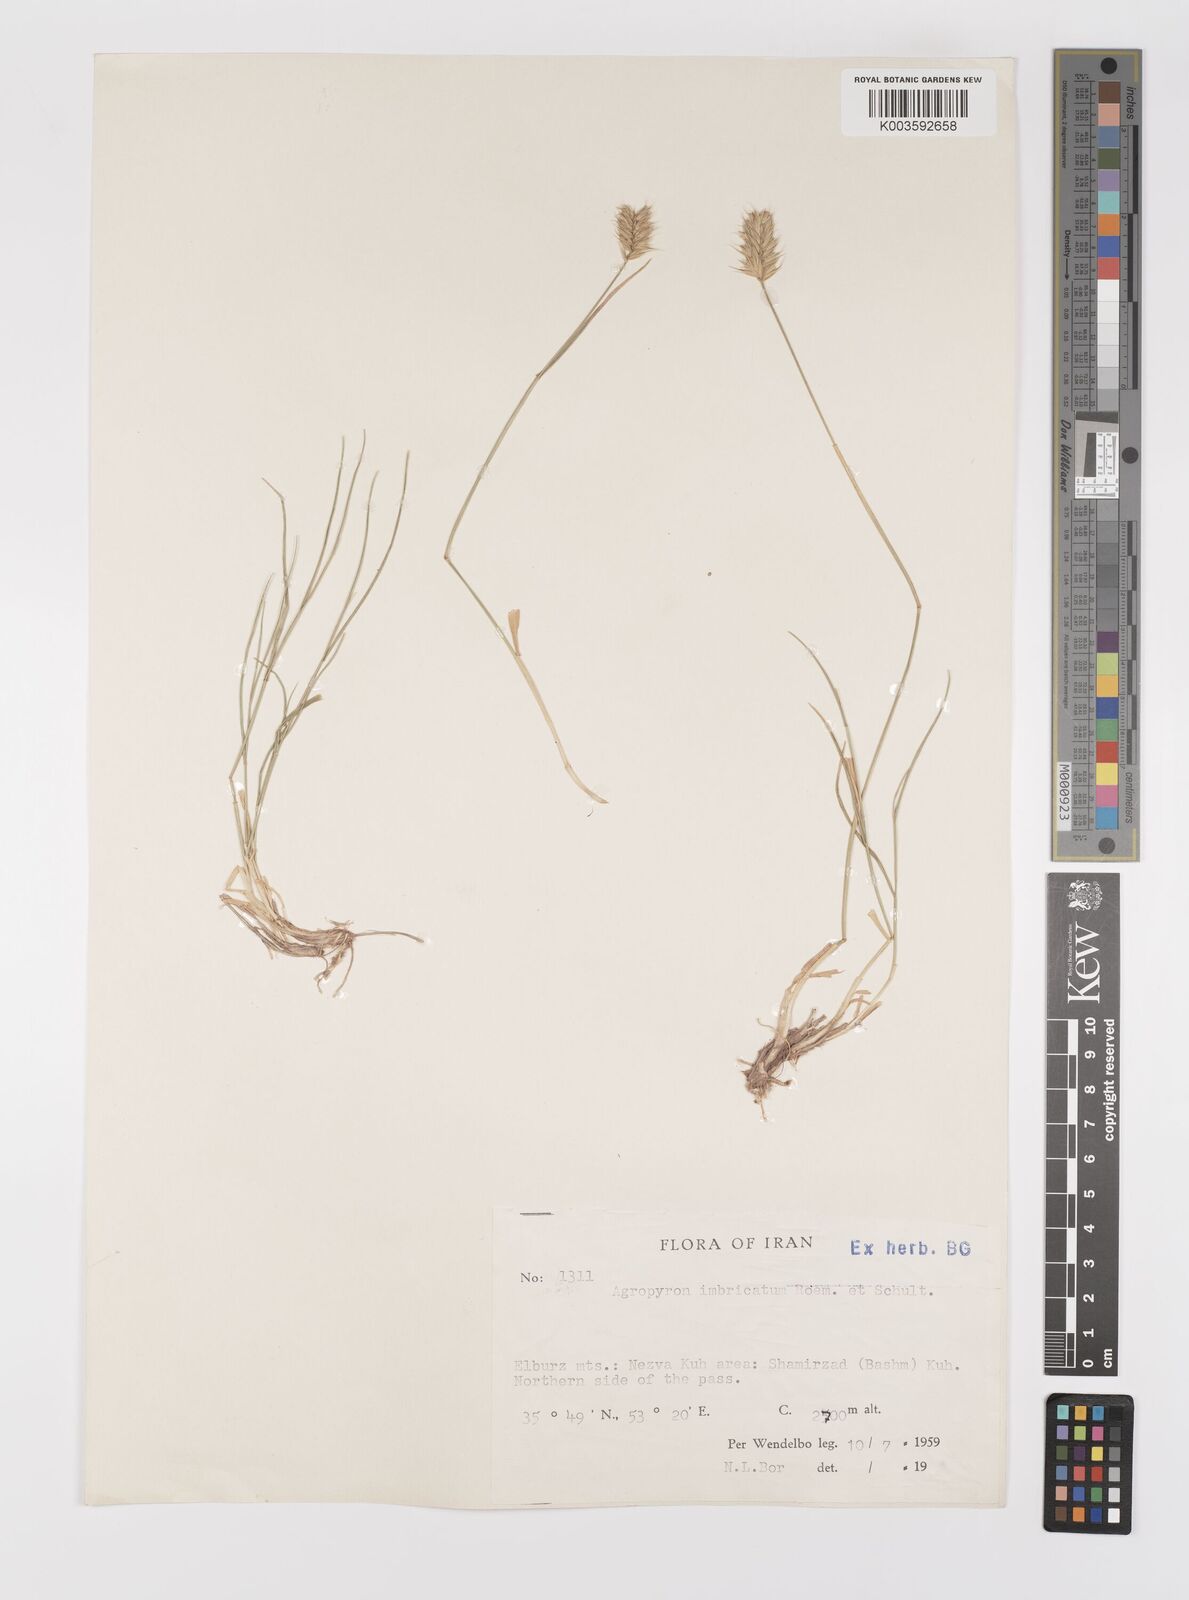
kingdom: Plantae
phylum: Tracheophyta
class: Liliopsida
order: Poales
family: Poaceae
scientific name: Poaceae
